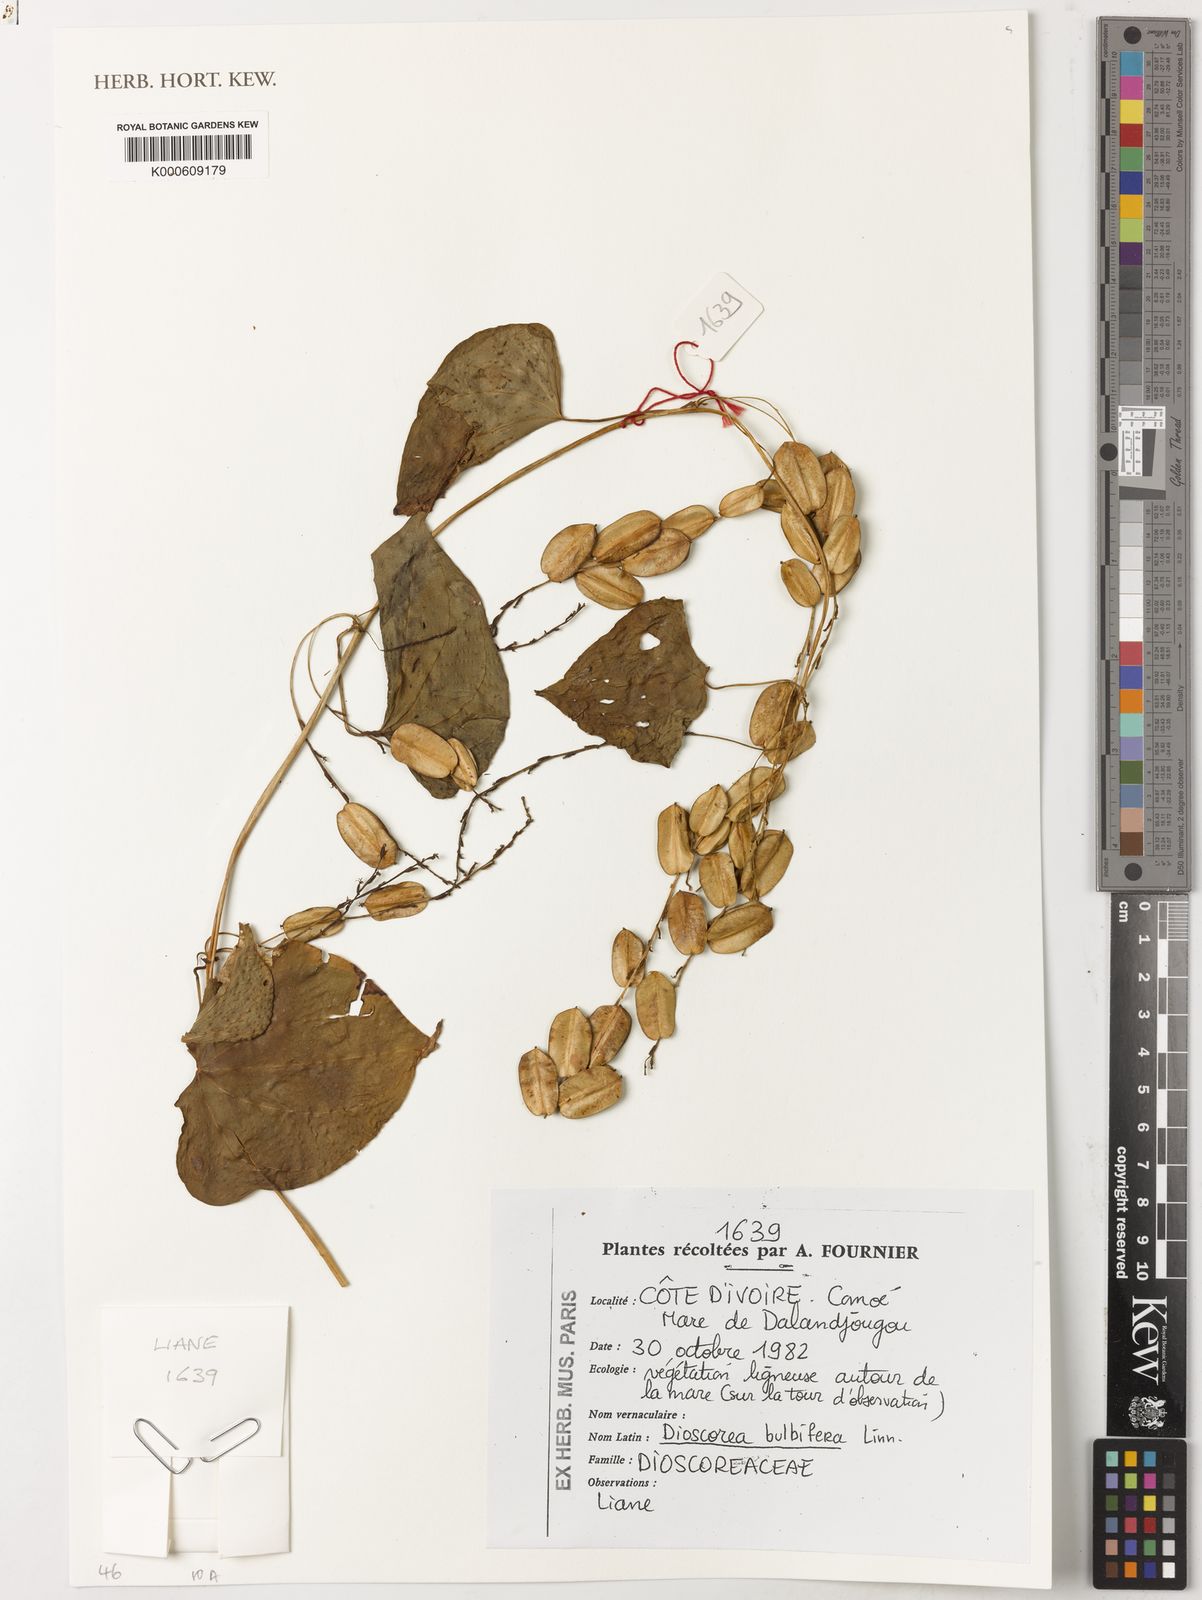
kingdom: Plantae
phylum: Tracheophyta
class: Liliopsida
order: Dioscoreales
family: Dioscoreaceae
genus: Dioscorea
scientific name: Dioscorea bulbifera
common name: Air yam
